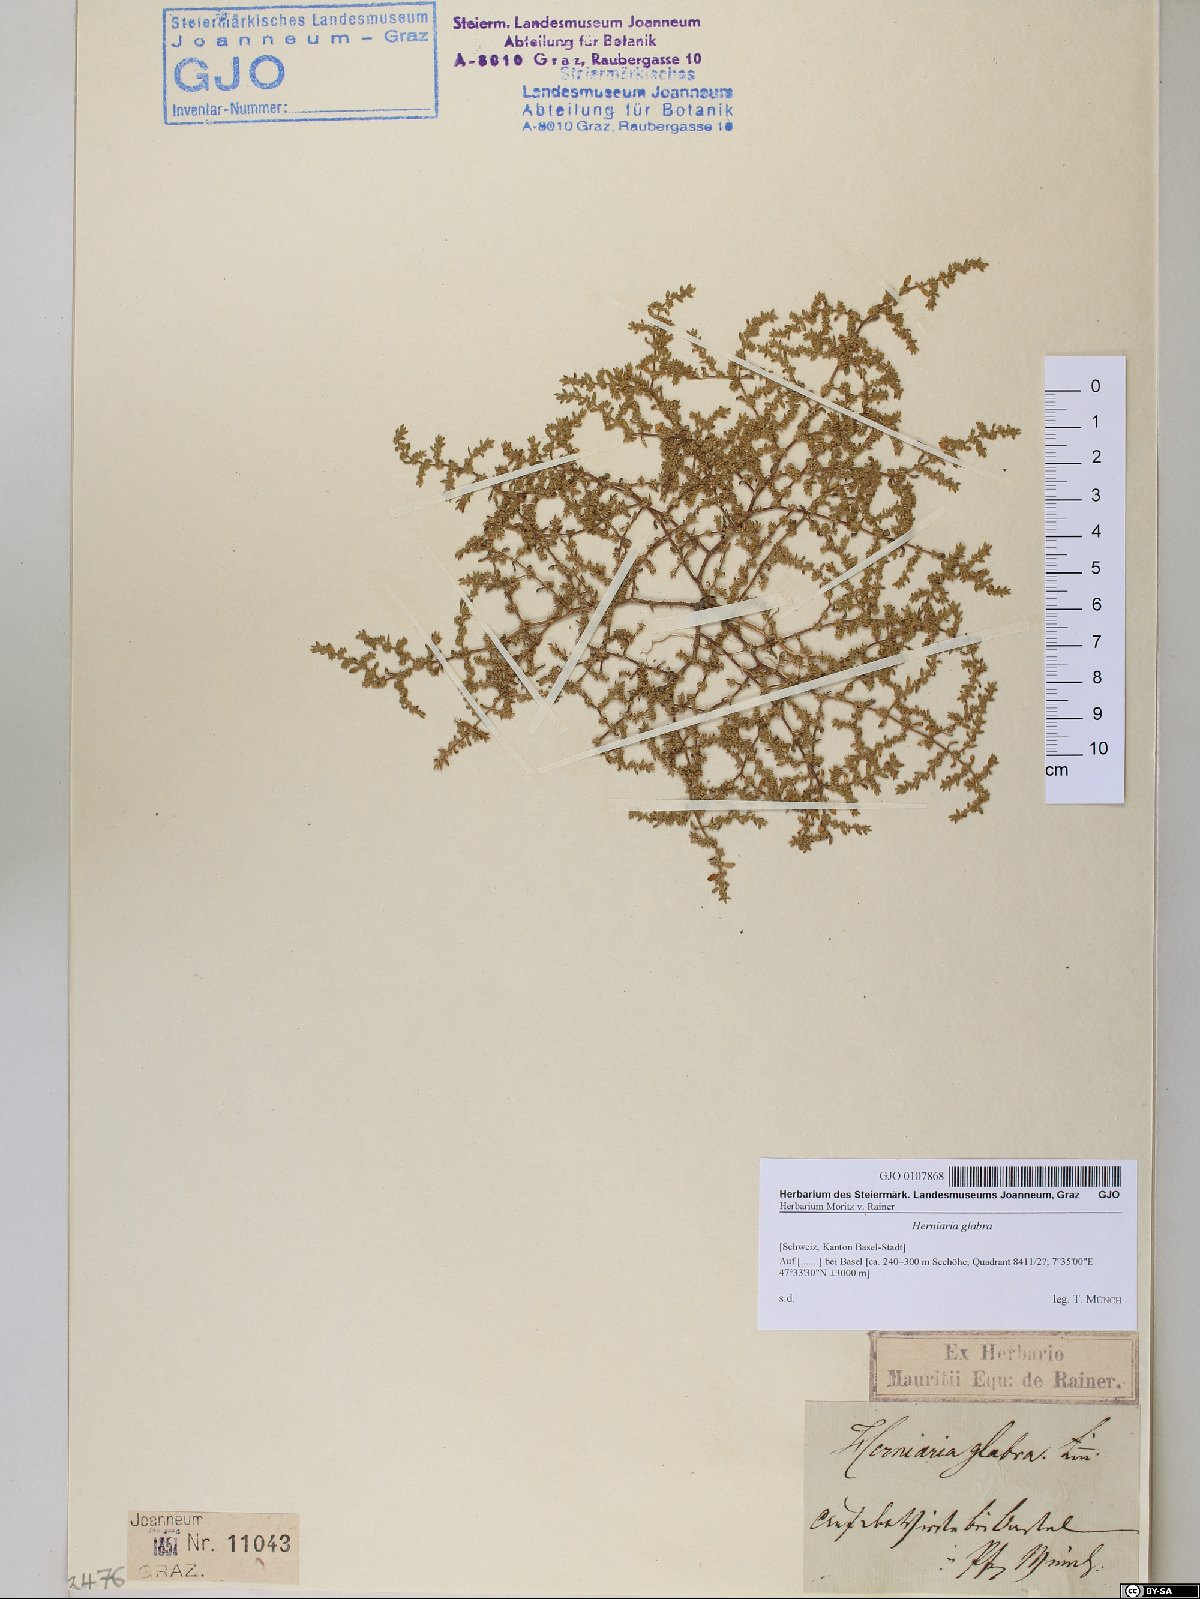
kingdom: Plantae
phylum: Tracheophyta
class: Magnoliopsida
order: Caryophyllales
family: Caryophyllaceae
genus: Herniaria
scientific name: Herniaria glabra
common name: Smooth rupturewort
